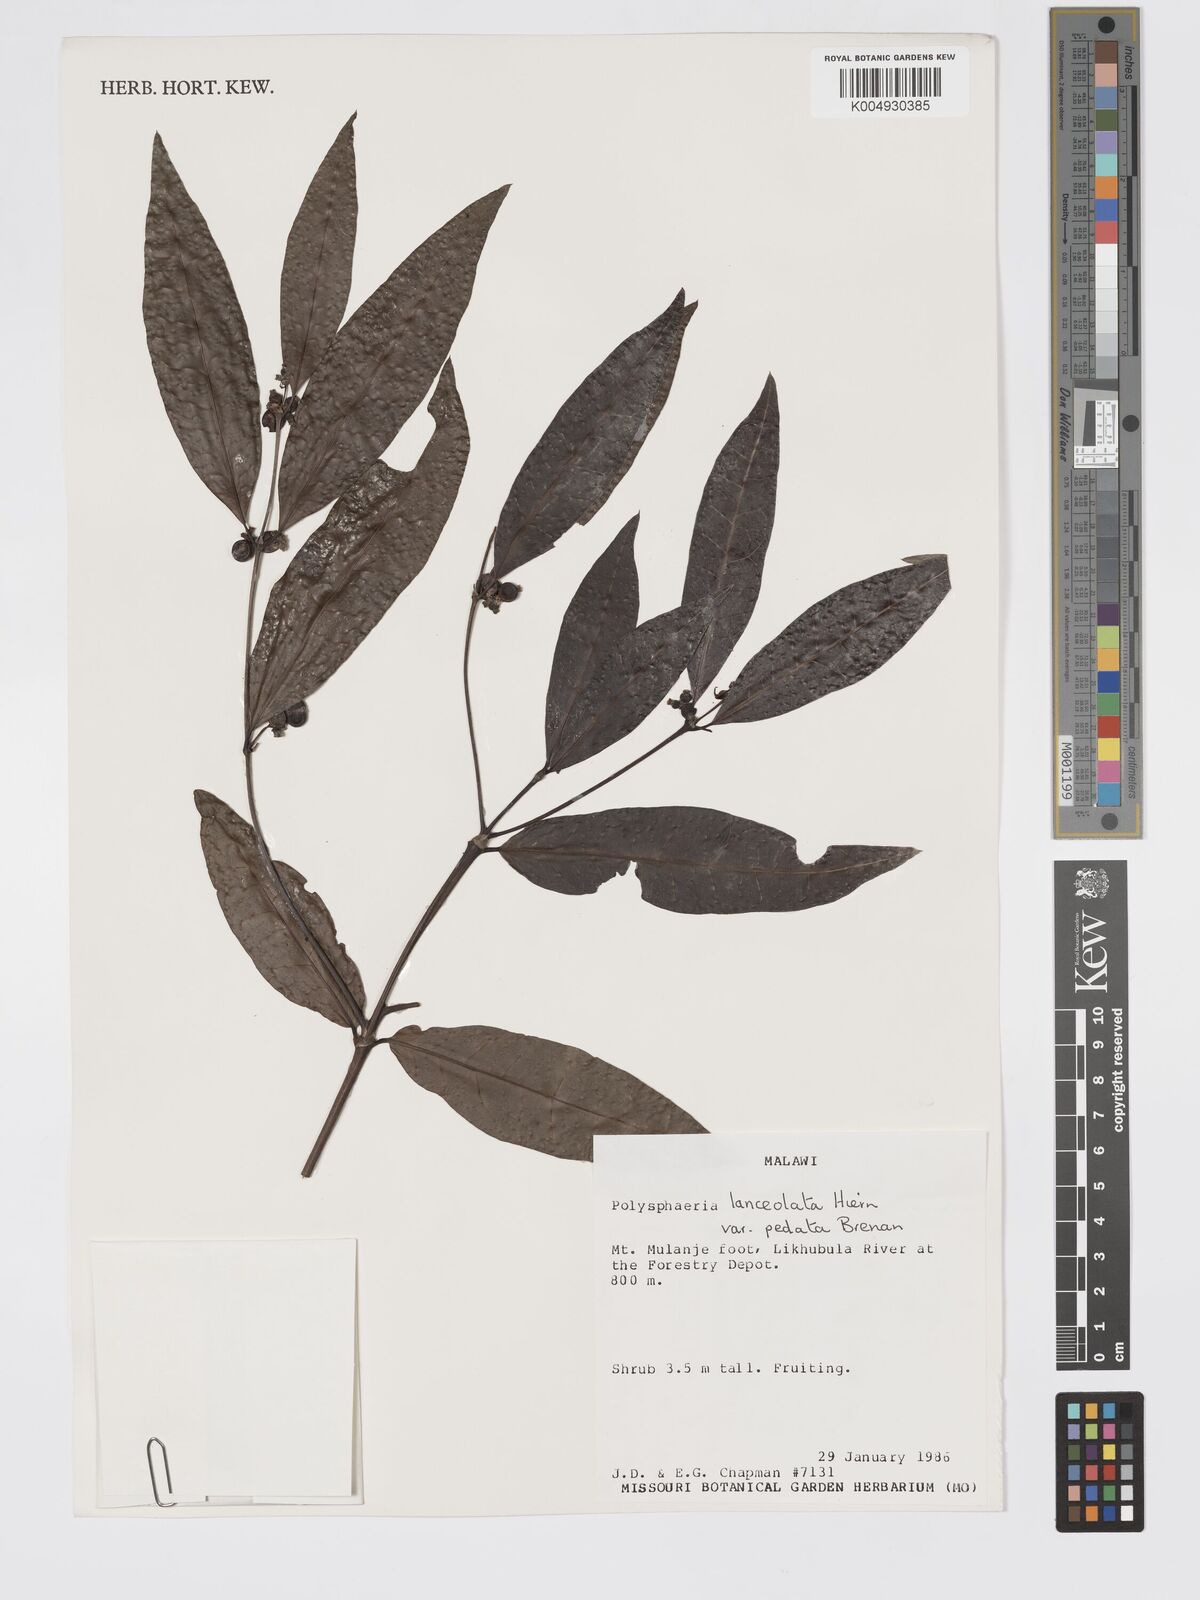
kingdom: Plantae
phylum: Tracheophyta
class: Magnoliopsida
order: Gentianales
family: Rubiaceae
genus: Polysphaeria
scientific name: Polysphaeria lanceolata
